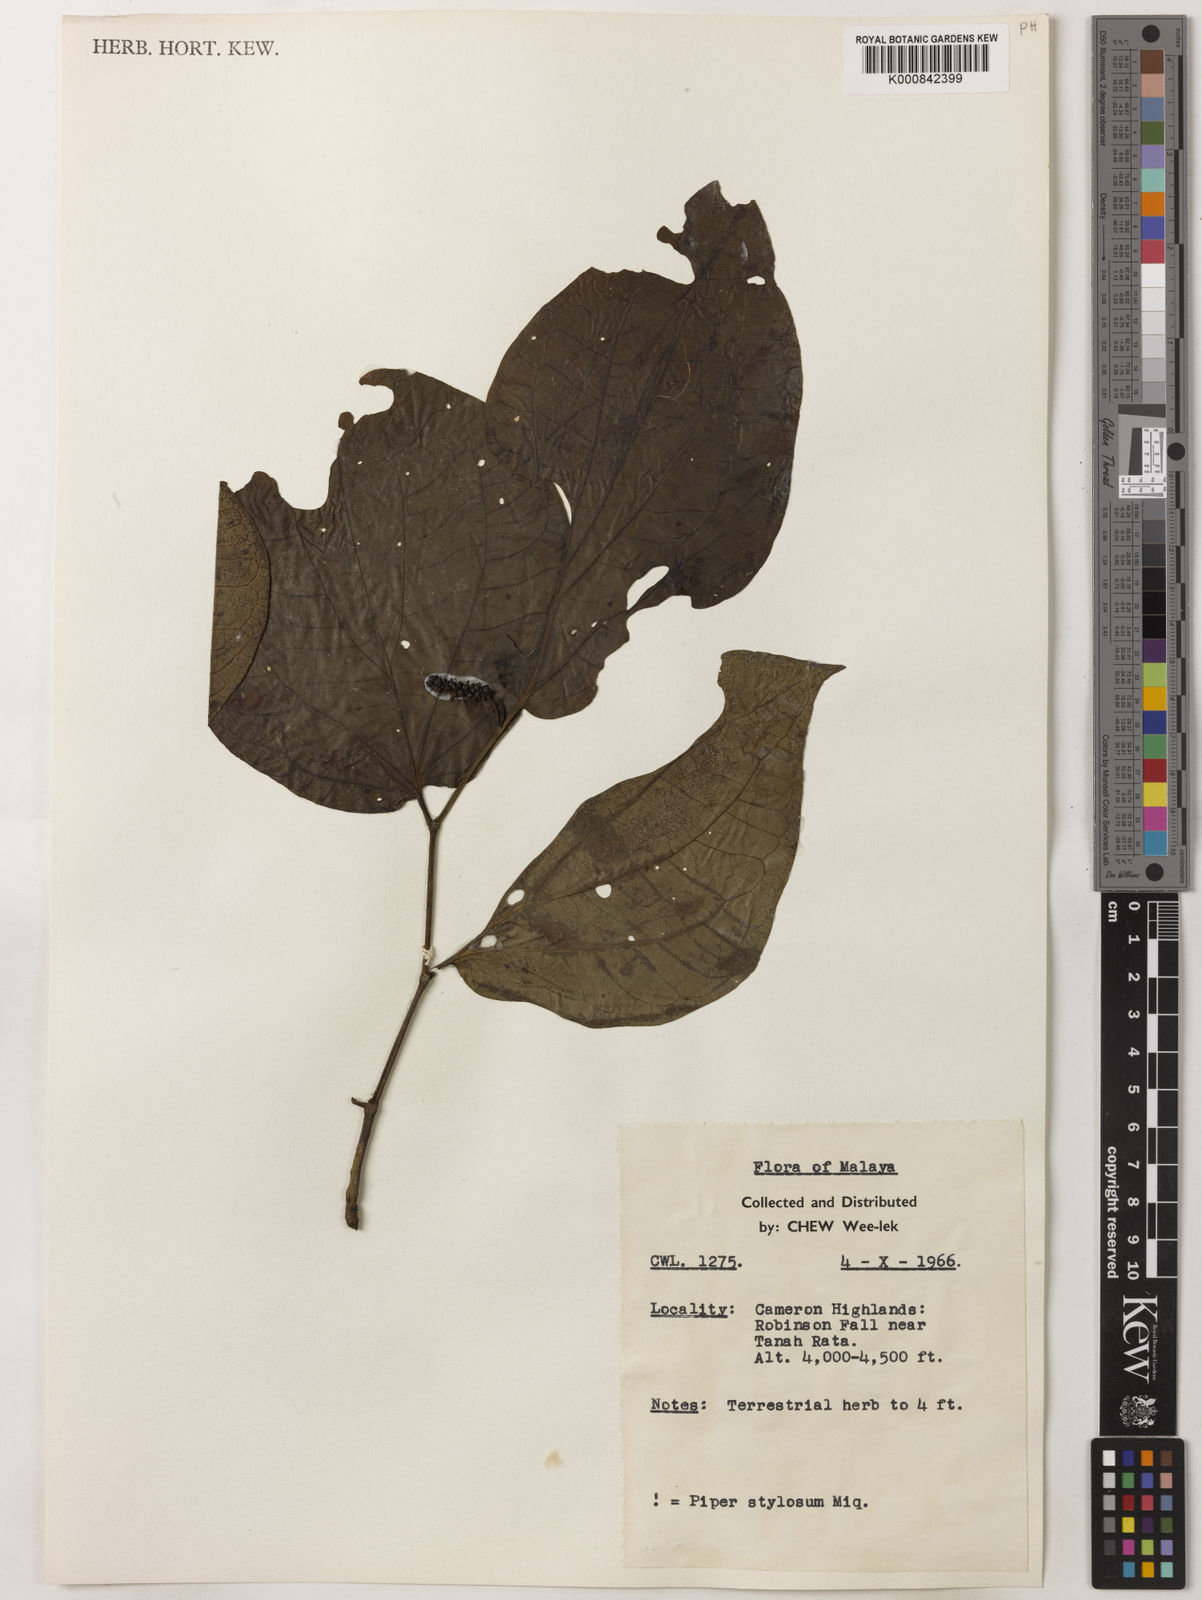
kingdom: Plantae
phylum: Tracheophyta
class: Magnoliopsida
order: Piperales
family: Piperaceae
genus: Piper
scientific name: Piper rostratum
